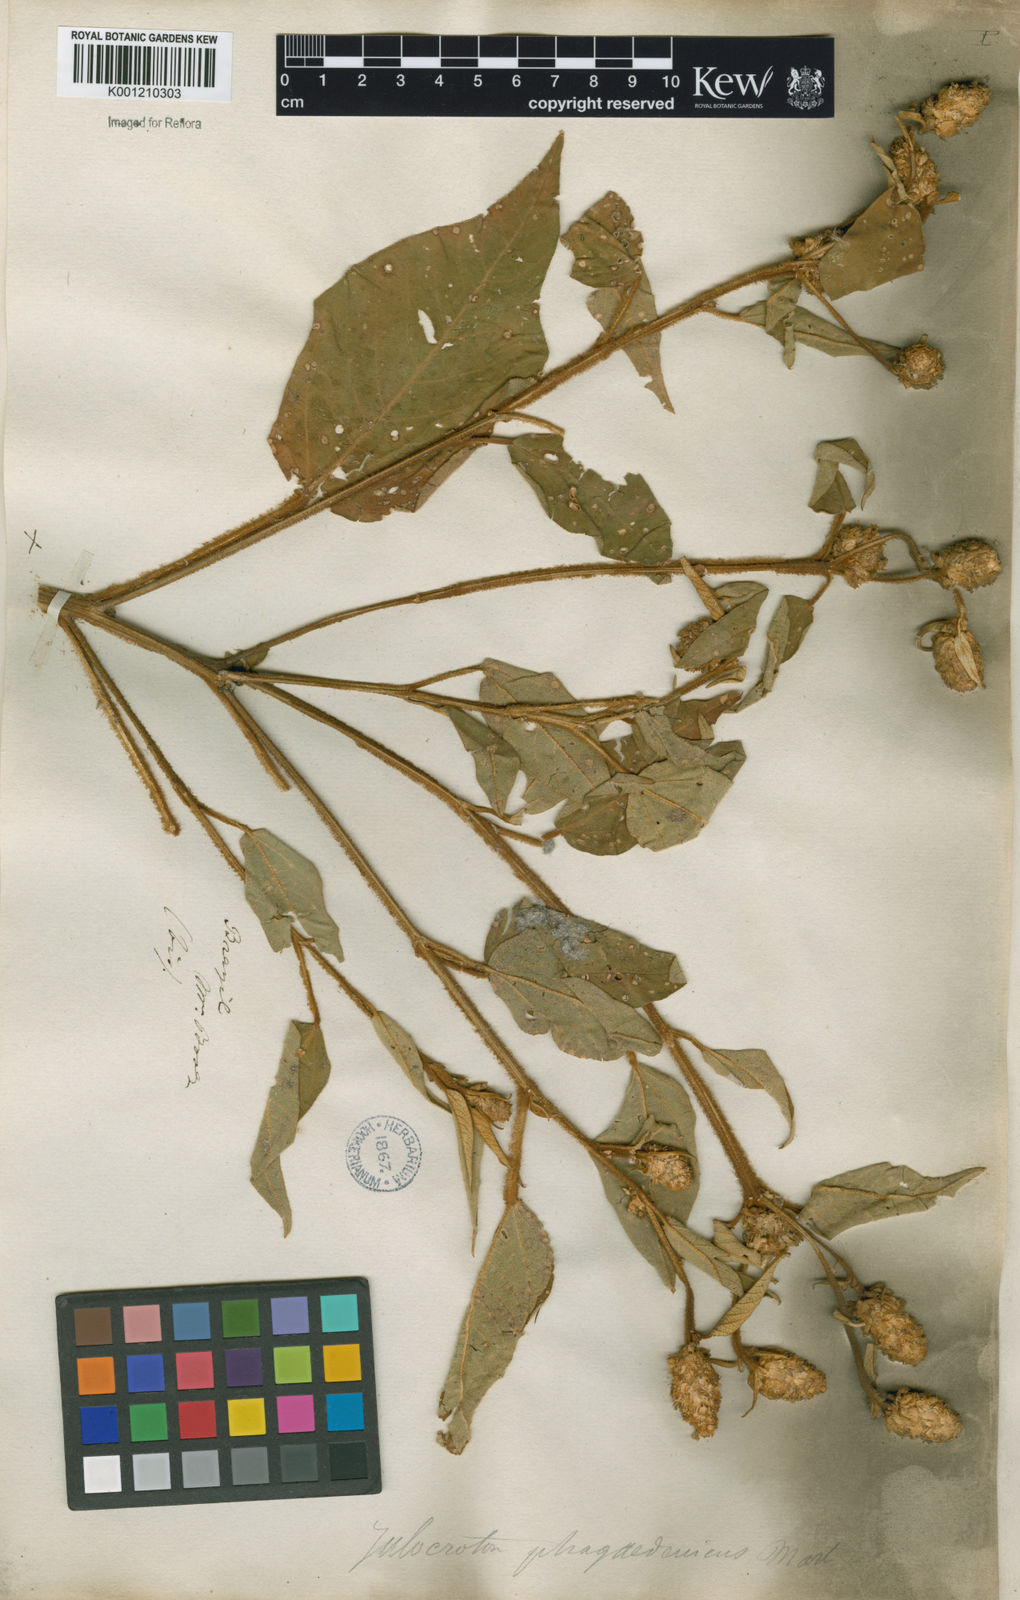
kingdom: Plantae
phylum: Tracheophyta
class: Magnoliopsida
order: Malpighiales
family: Euphorbiaceae
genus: Croton
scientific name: Croton triqueter
